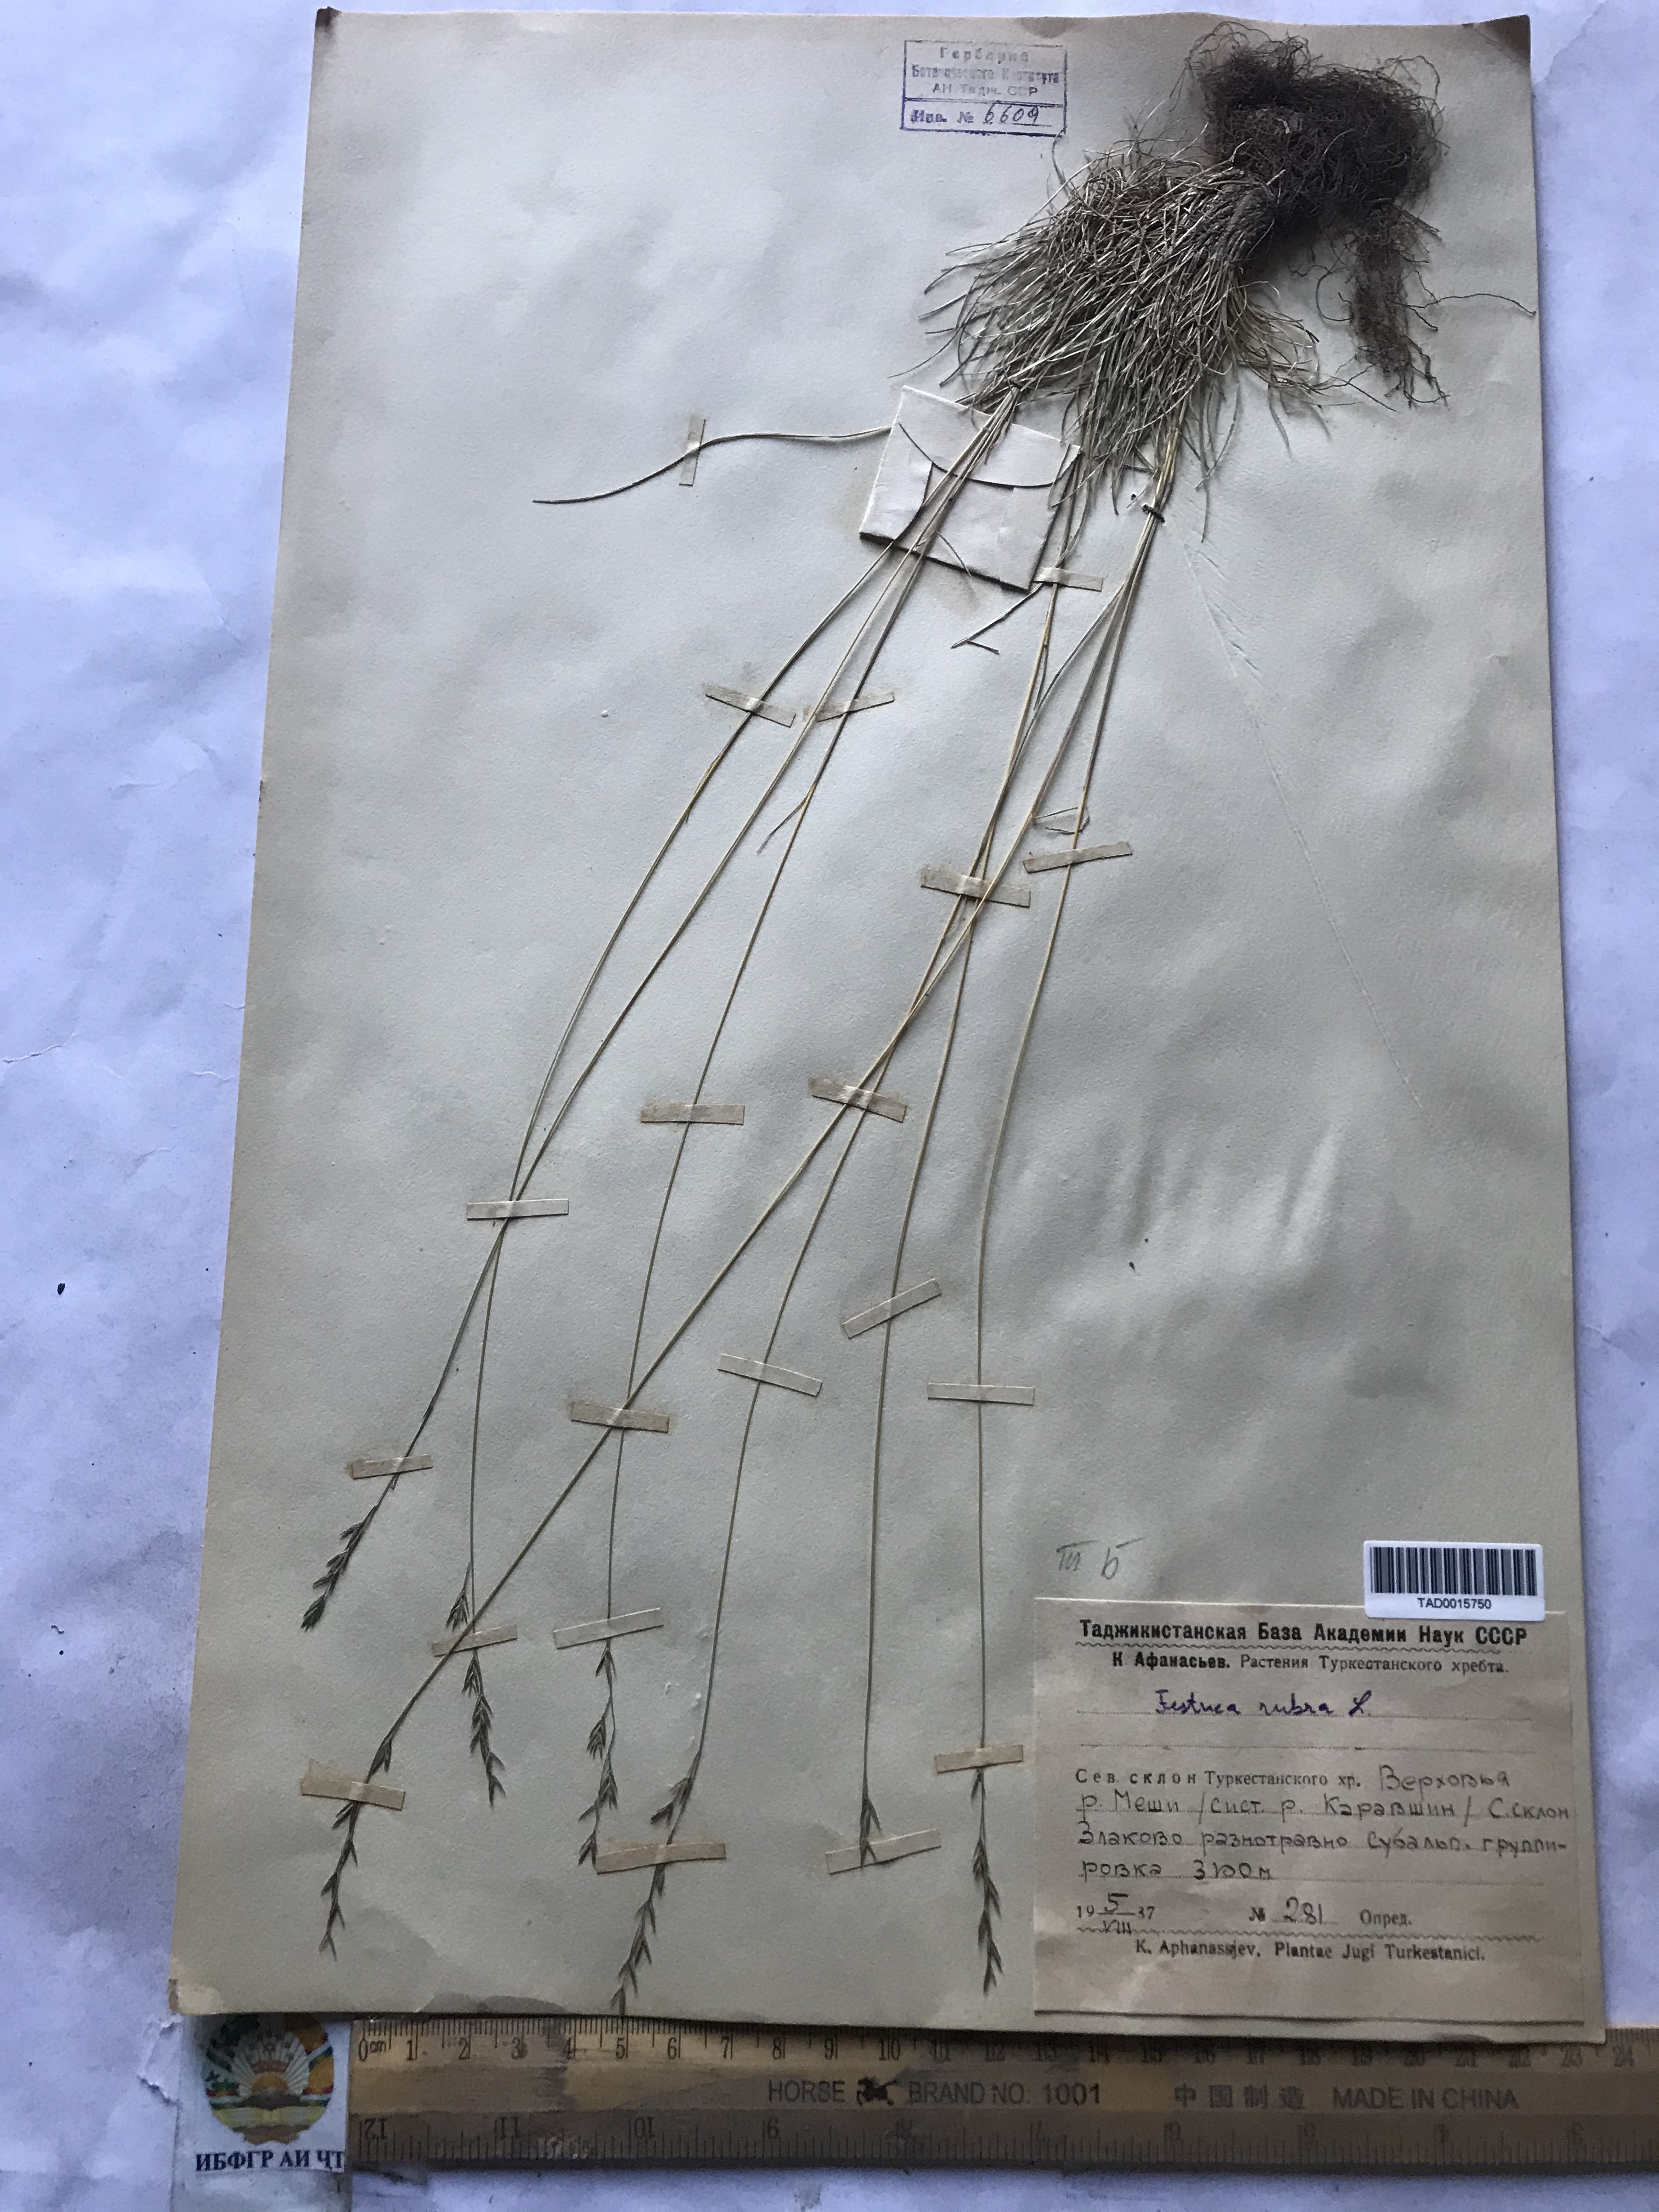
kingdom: Plantae
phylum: Tracheophyta
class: Liliopsida
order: Poales
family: Poaceae
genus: Festuca
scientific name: Festuca rubra
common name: Red fescue
